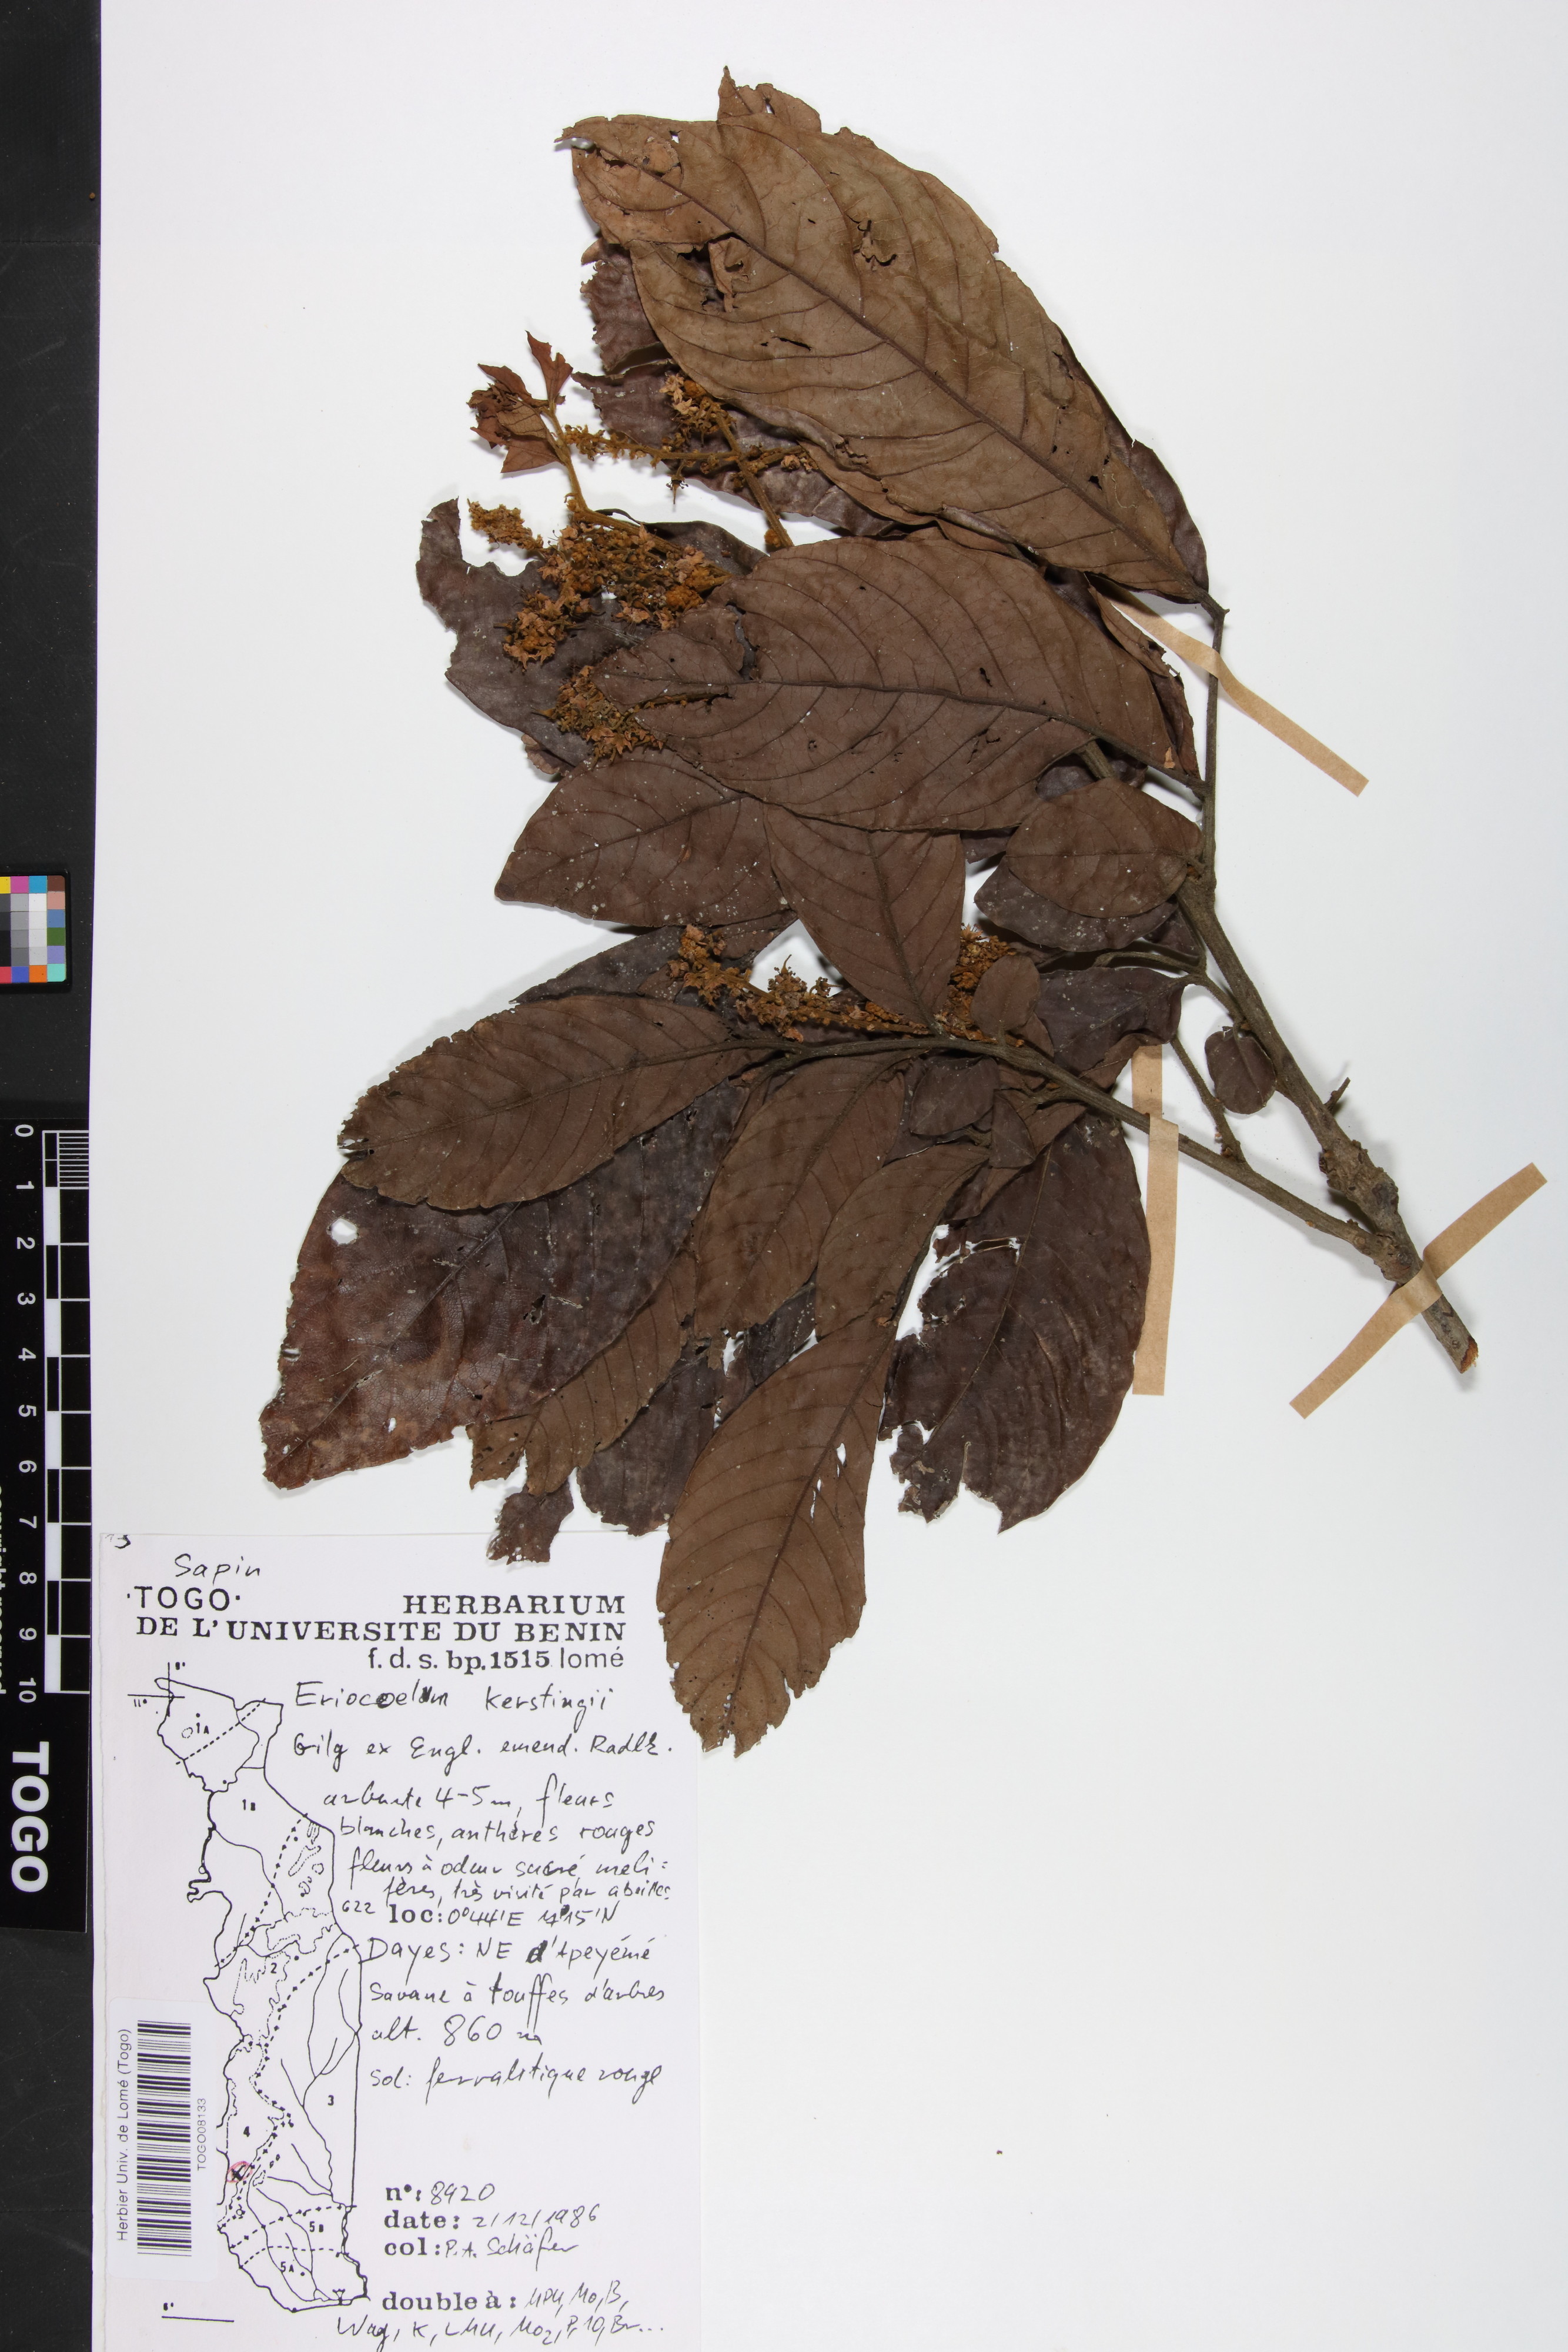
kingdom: Plantae
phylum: Tracheophyta
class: Magnoliopsida
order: Sapindales
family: Sapindaceae
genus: Eriocoelum
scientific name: Eriocoelum kerstingii
